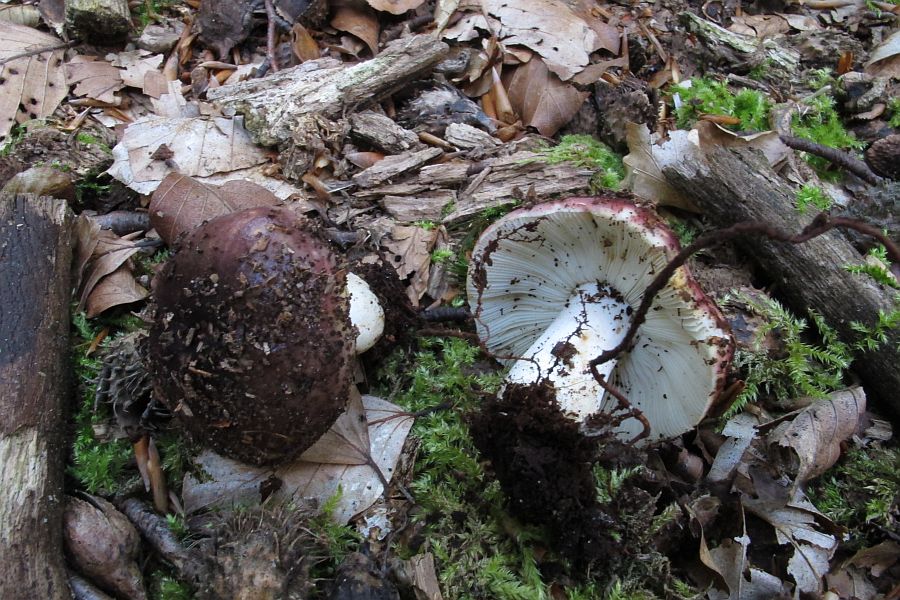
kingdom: Fungi
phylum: Basidiomycota
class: Agaricomycetes
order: Russulales
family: Russulaceae
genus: Russula
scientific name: Russula atropurpurea
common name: purpurbroget skørhat
